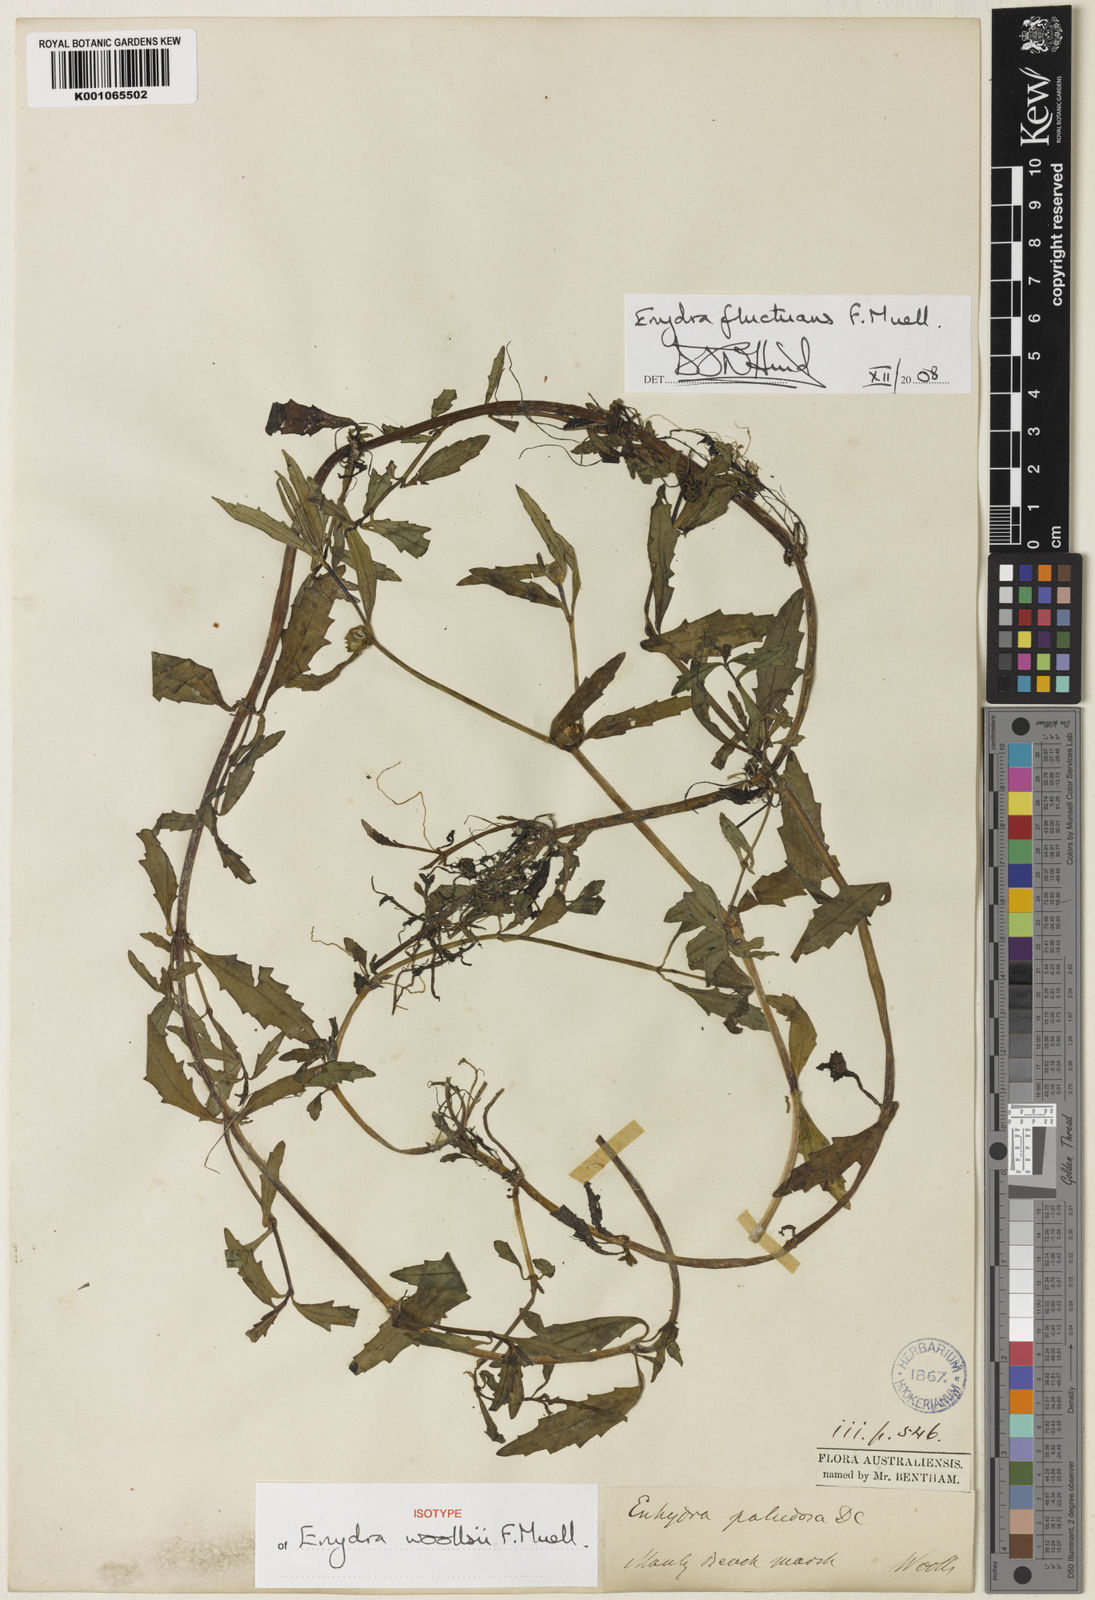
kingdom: Plantae
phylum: Tracheophyta
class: Magnoliopsida
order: Asterales
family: Asteraceae
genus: Enydra
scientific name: Enydra
